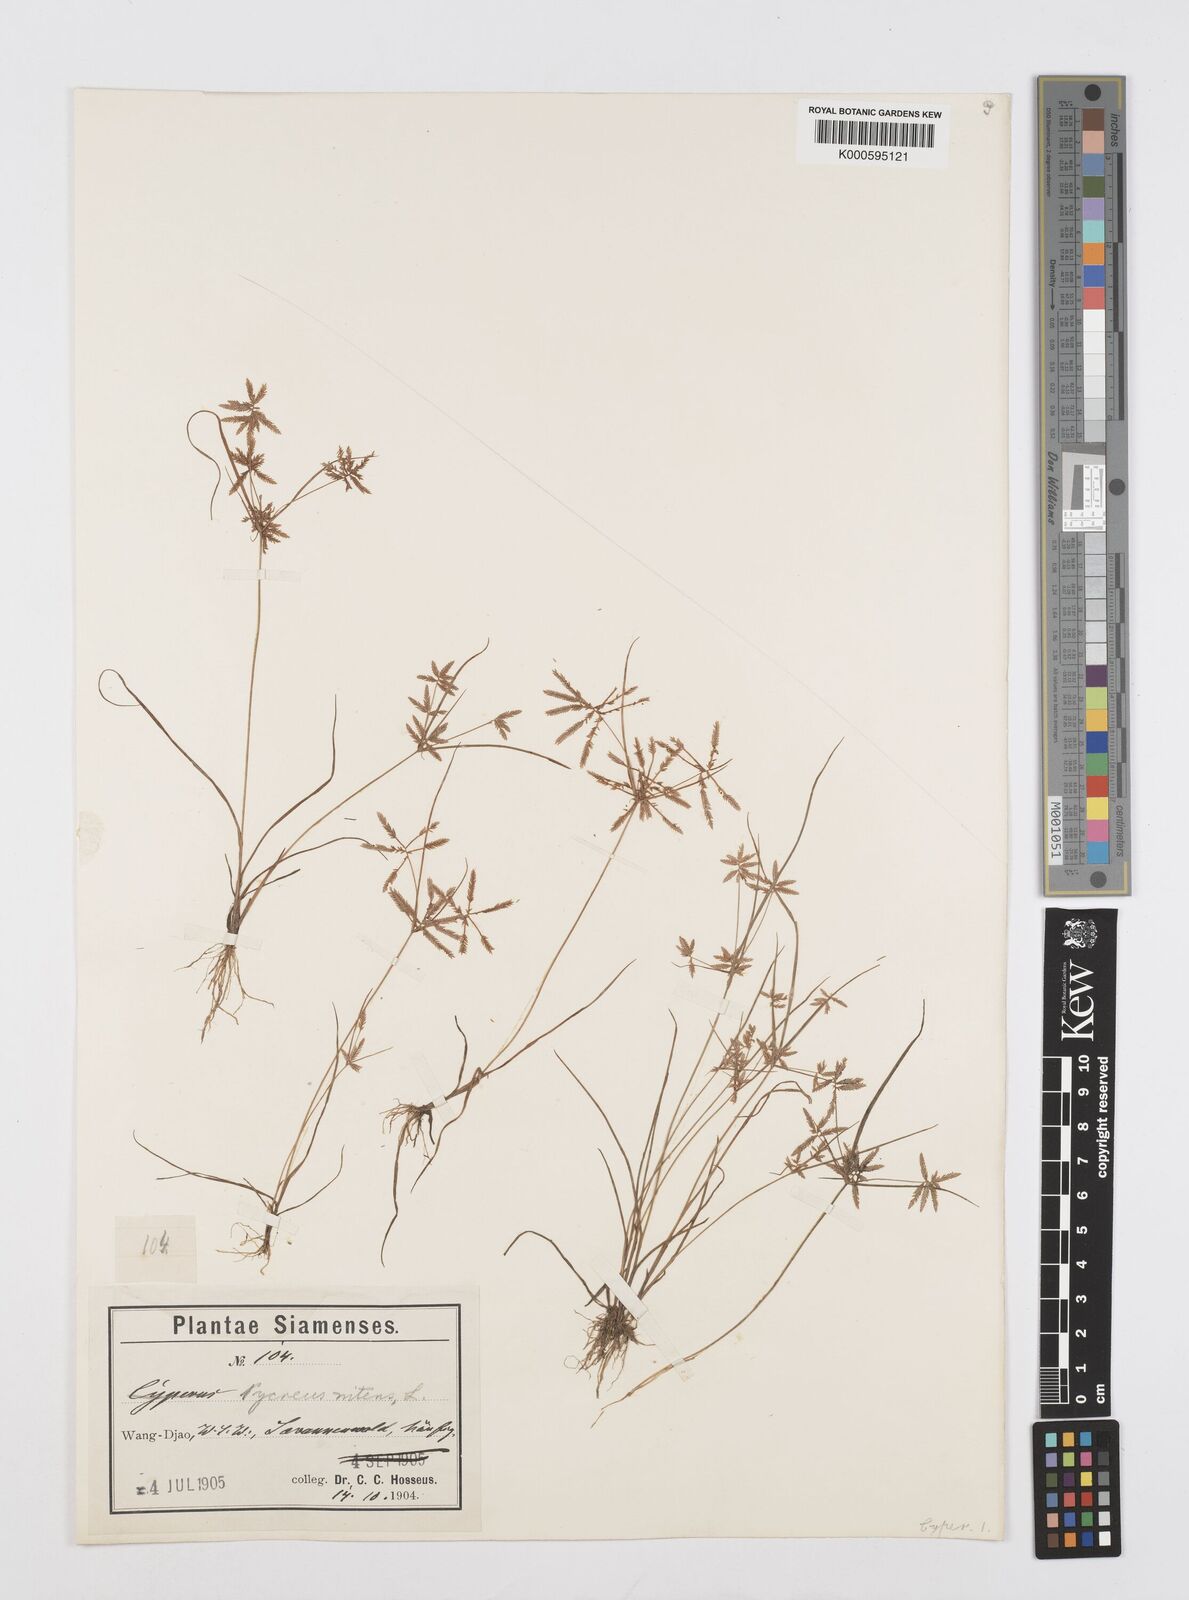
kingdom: Plantae
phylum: Tracheophyta
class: Liliopsida
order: Poales
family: Cyperaceae
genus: Cyperus
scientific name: Cyperus pumilus
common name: Low flatsedge
